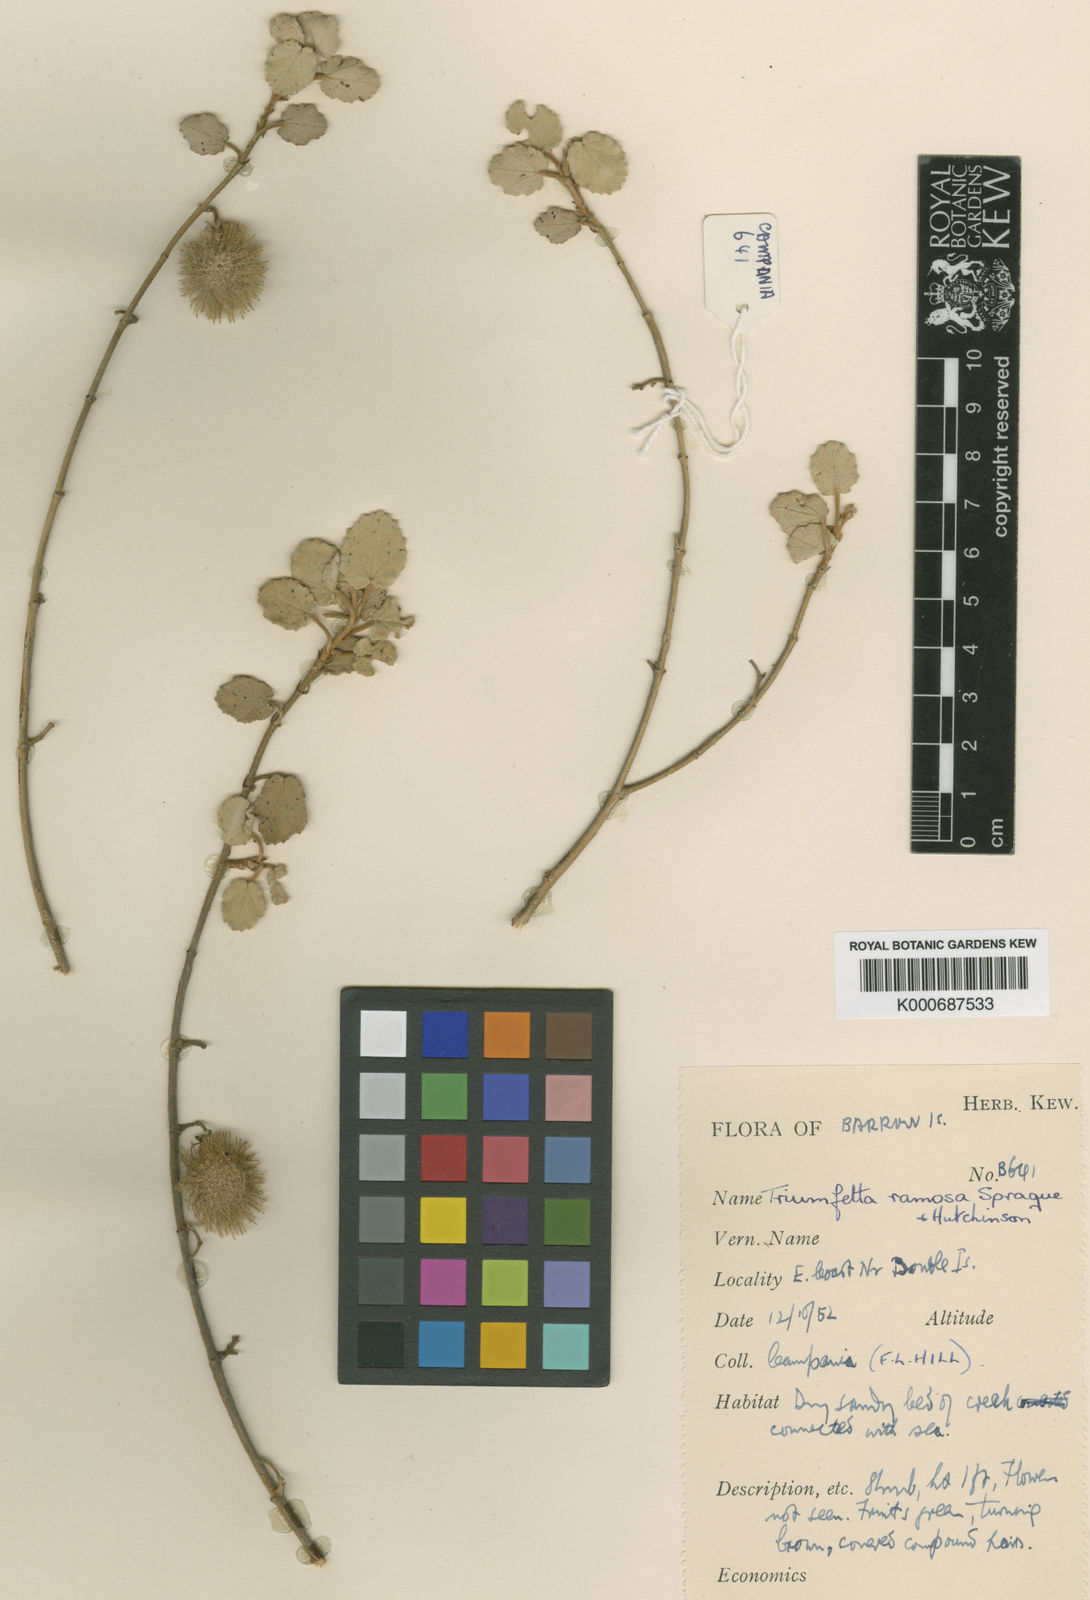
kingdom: Plantae
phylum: Tracheophyta
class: Magnoliopsida
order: Malvales
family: Malvaceae
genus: Triumfetta
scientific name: Triumfetta ramosa
